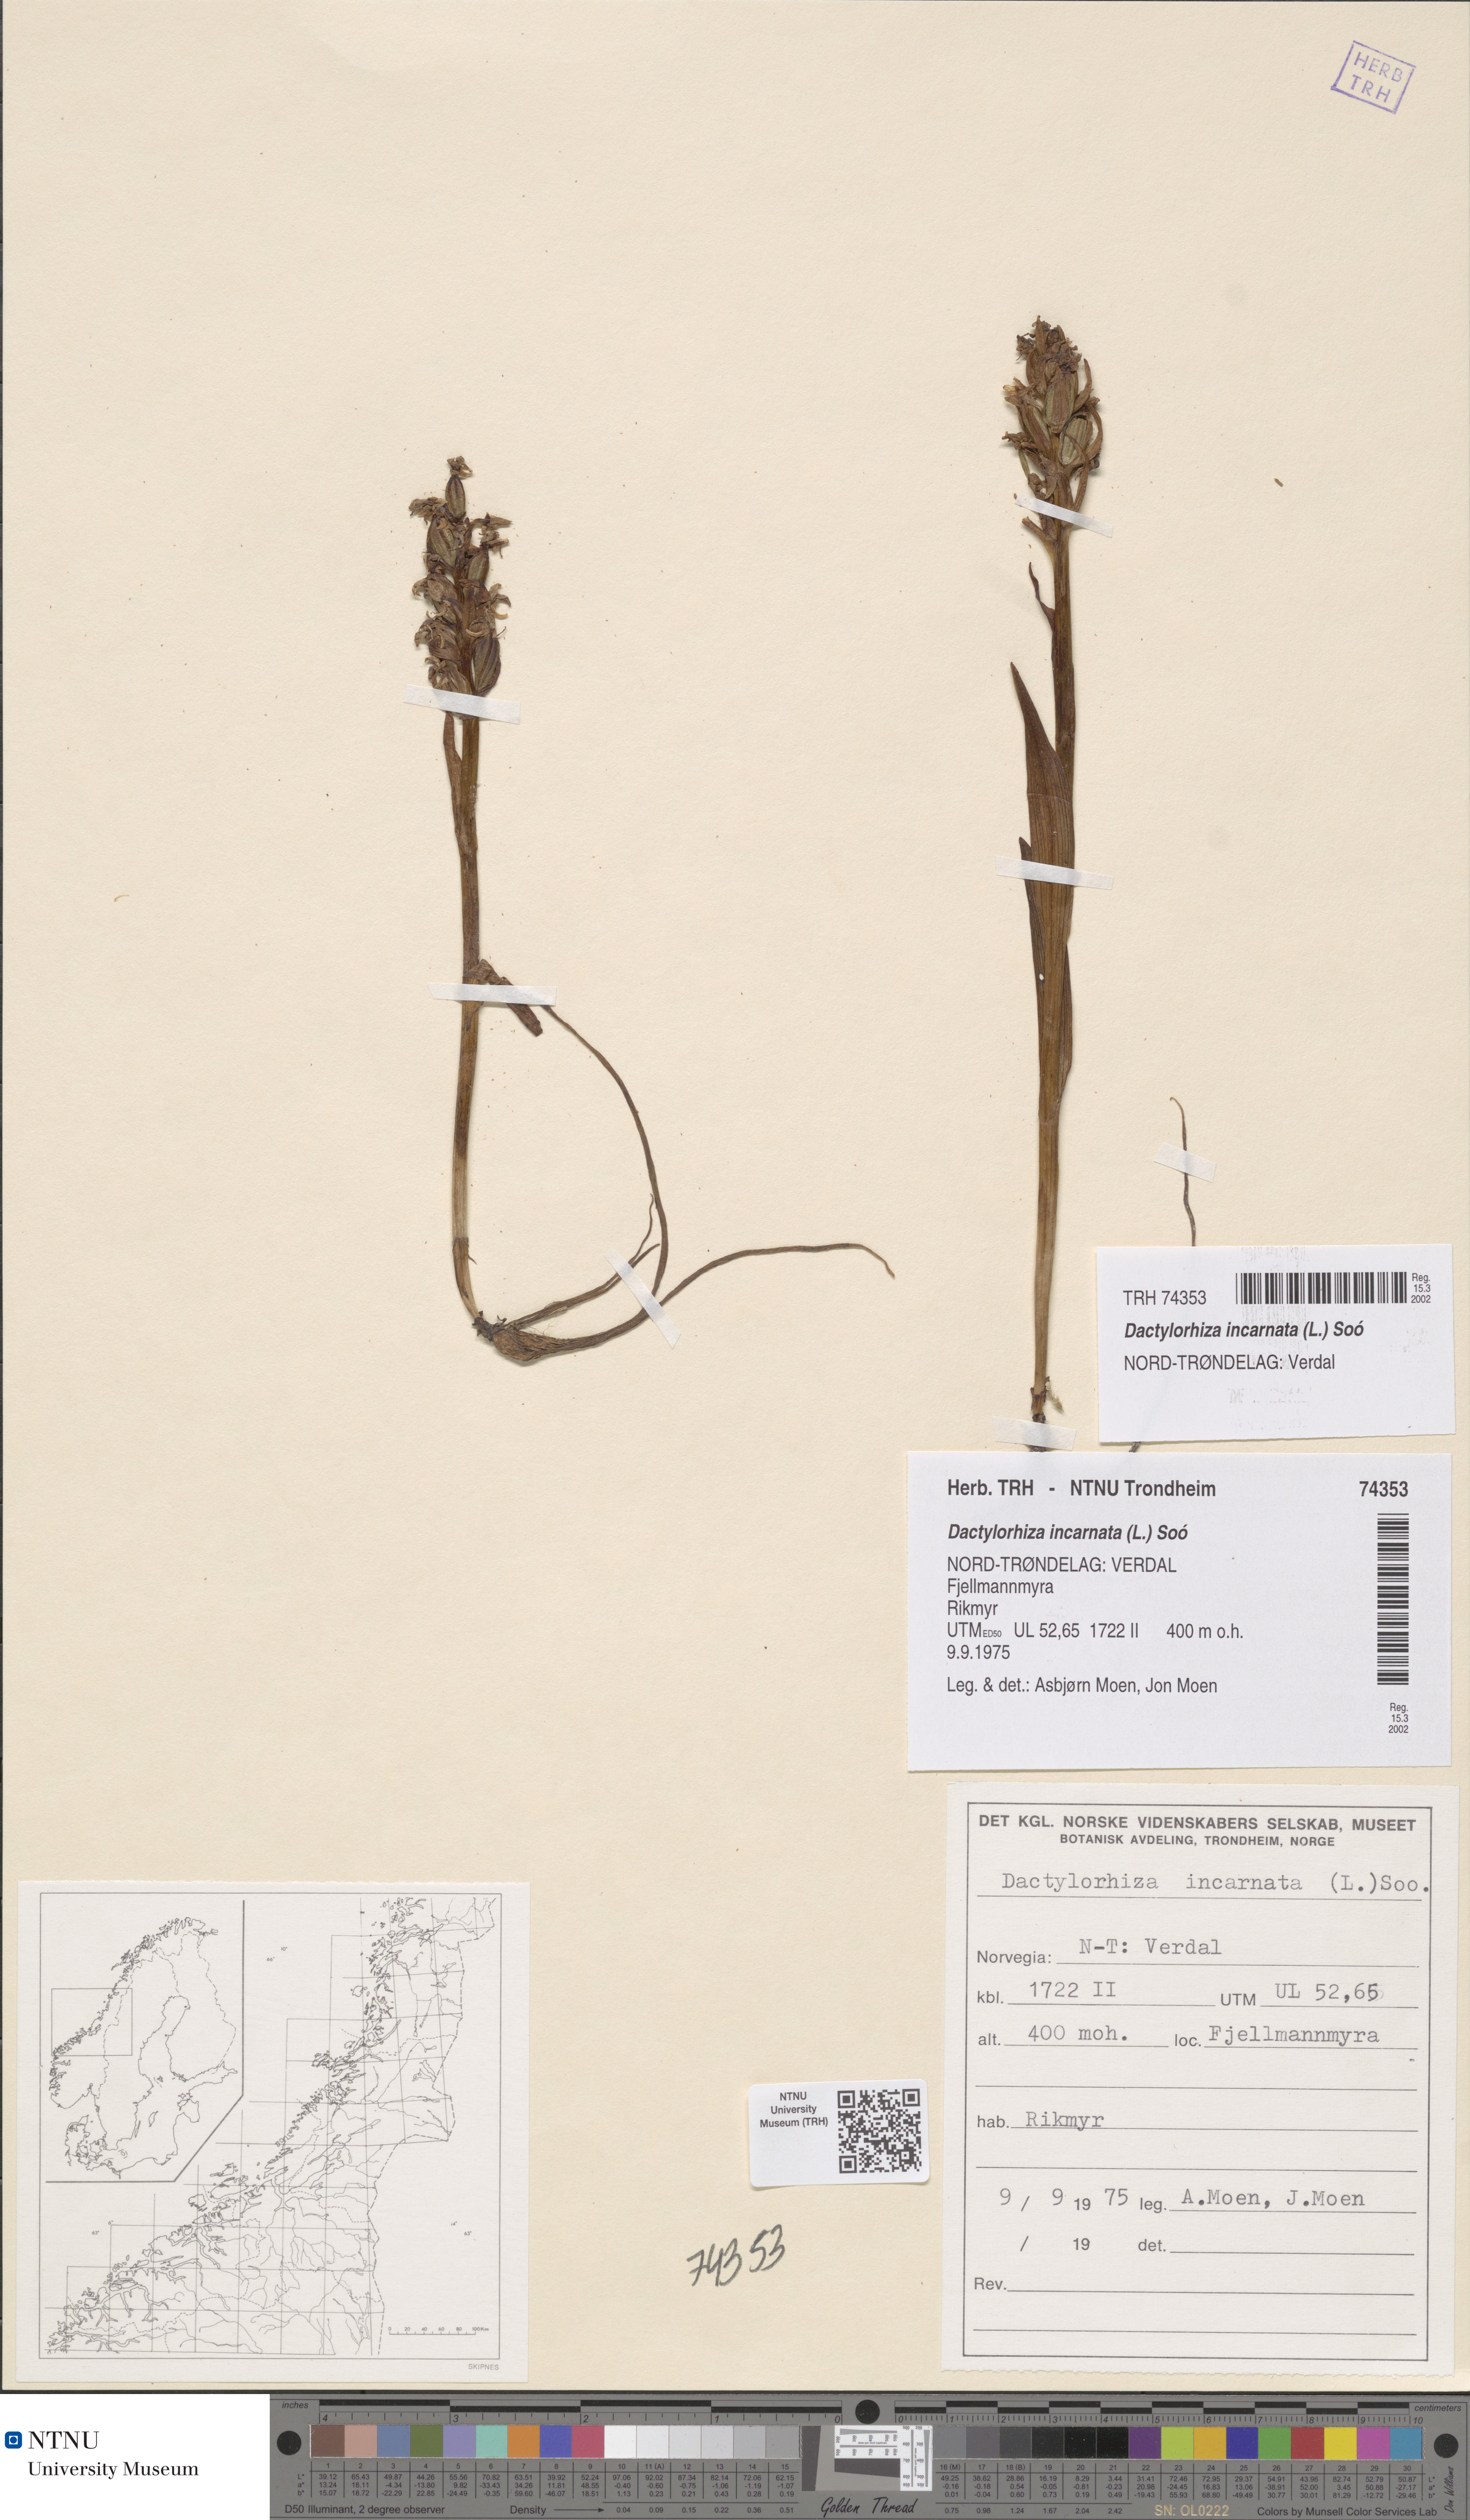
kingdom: Plantae
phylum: Tracheophyta
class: Liliopsida
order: Asparagales
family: Orchidaceae
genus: Dactylorhiza
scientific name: Dactylorhiza incarnata
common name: Early marsh-orchid
